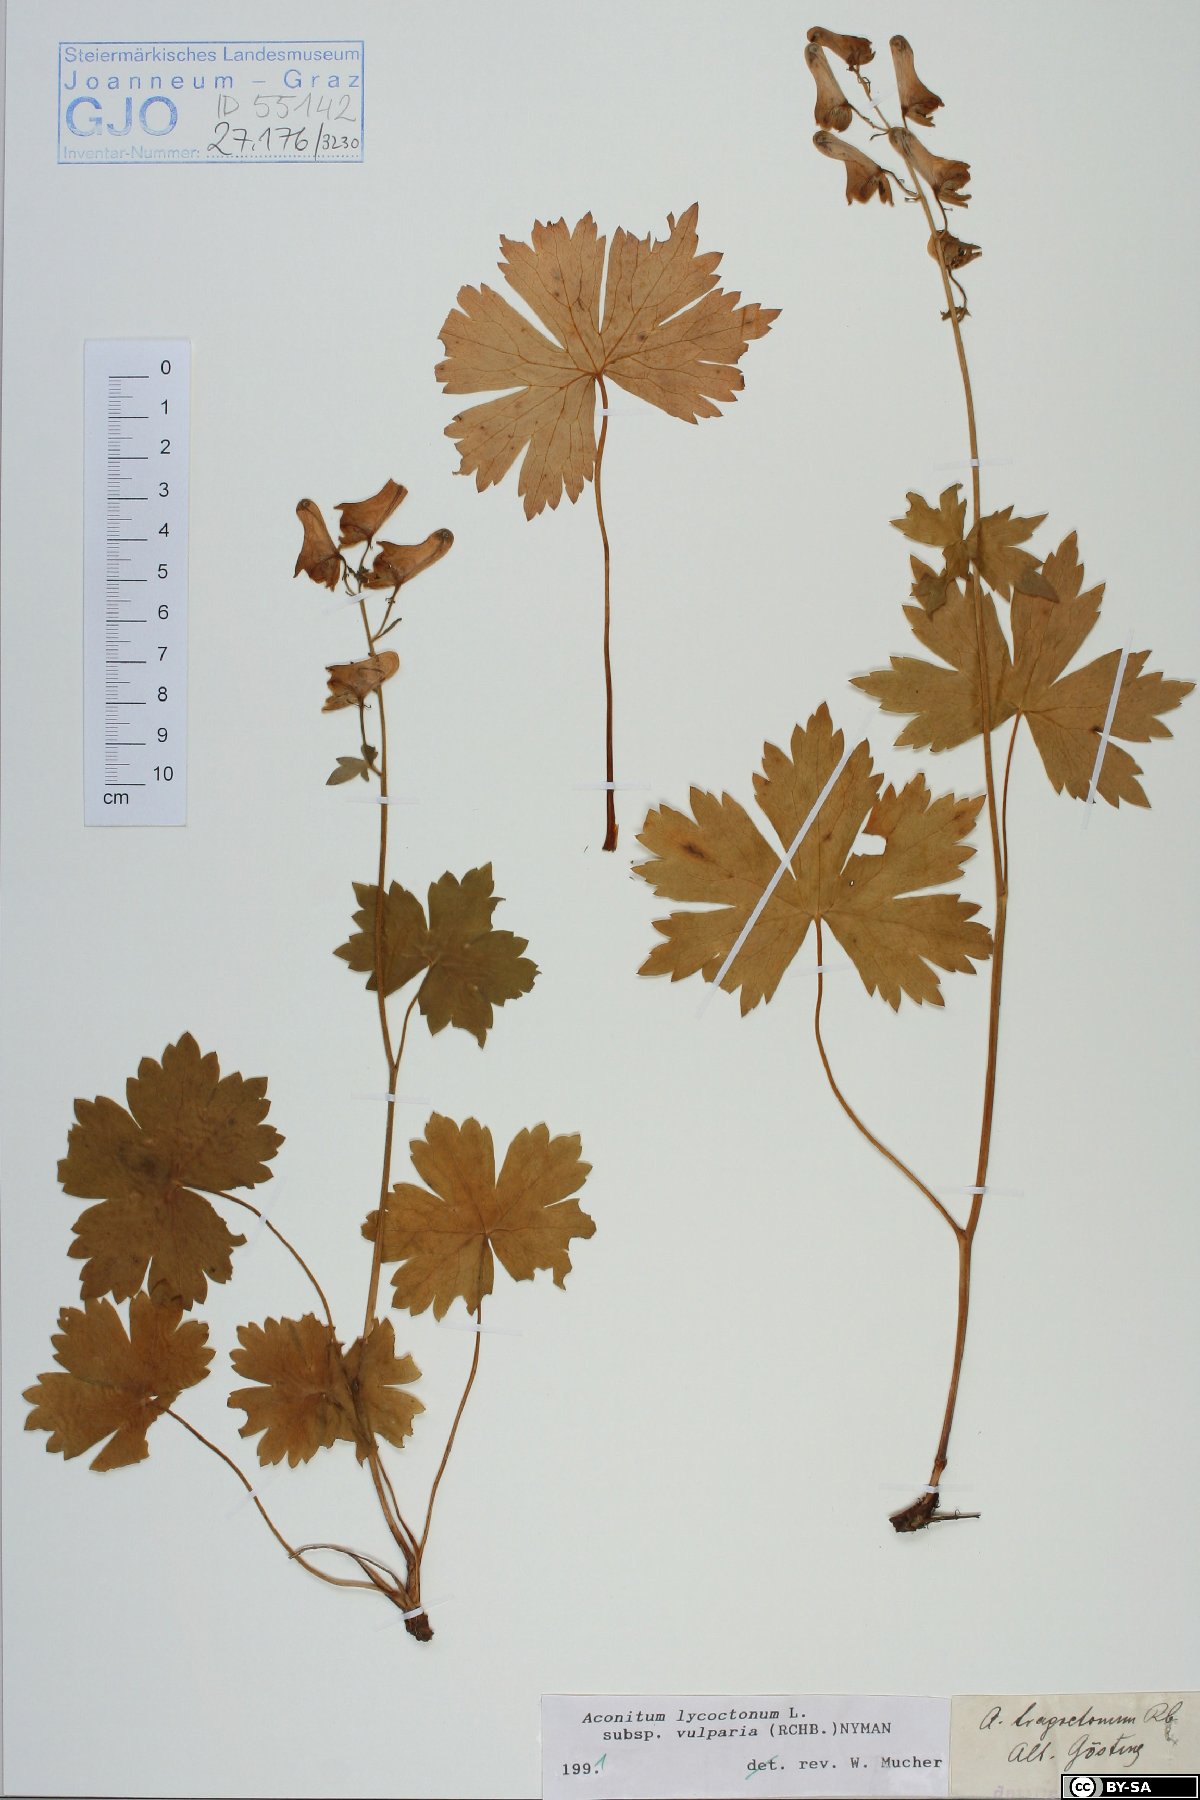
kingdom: Plantae
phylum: Tracheophyta
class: Magnoliopsida
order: Ranunculales
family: Ranunculaceae
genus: Aconitum
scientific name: Aconitum lycoctonum
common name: Wolf's-bane
